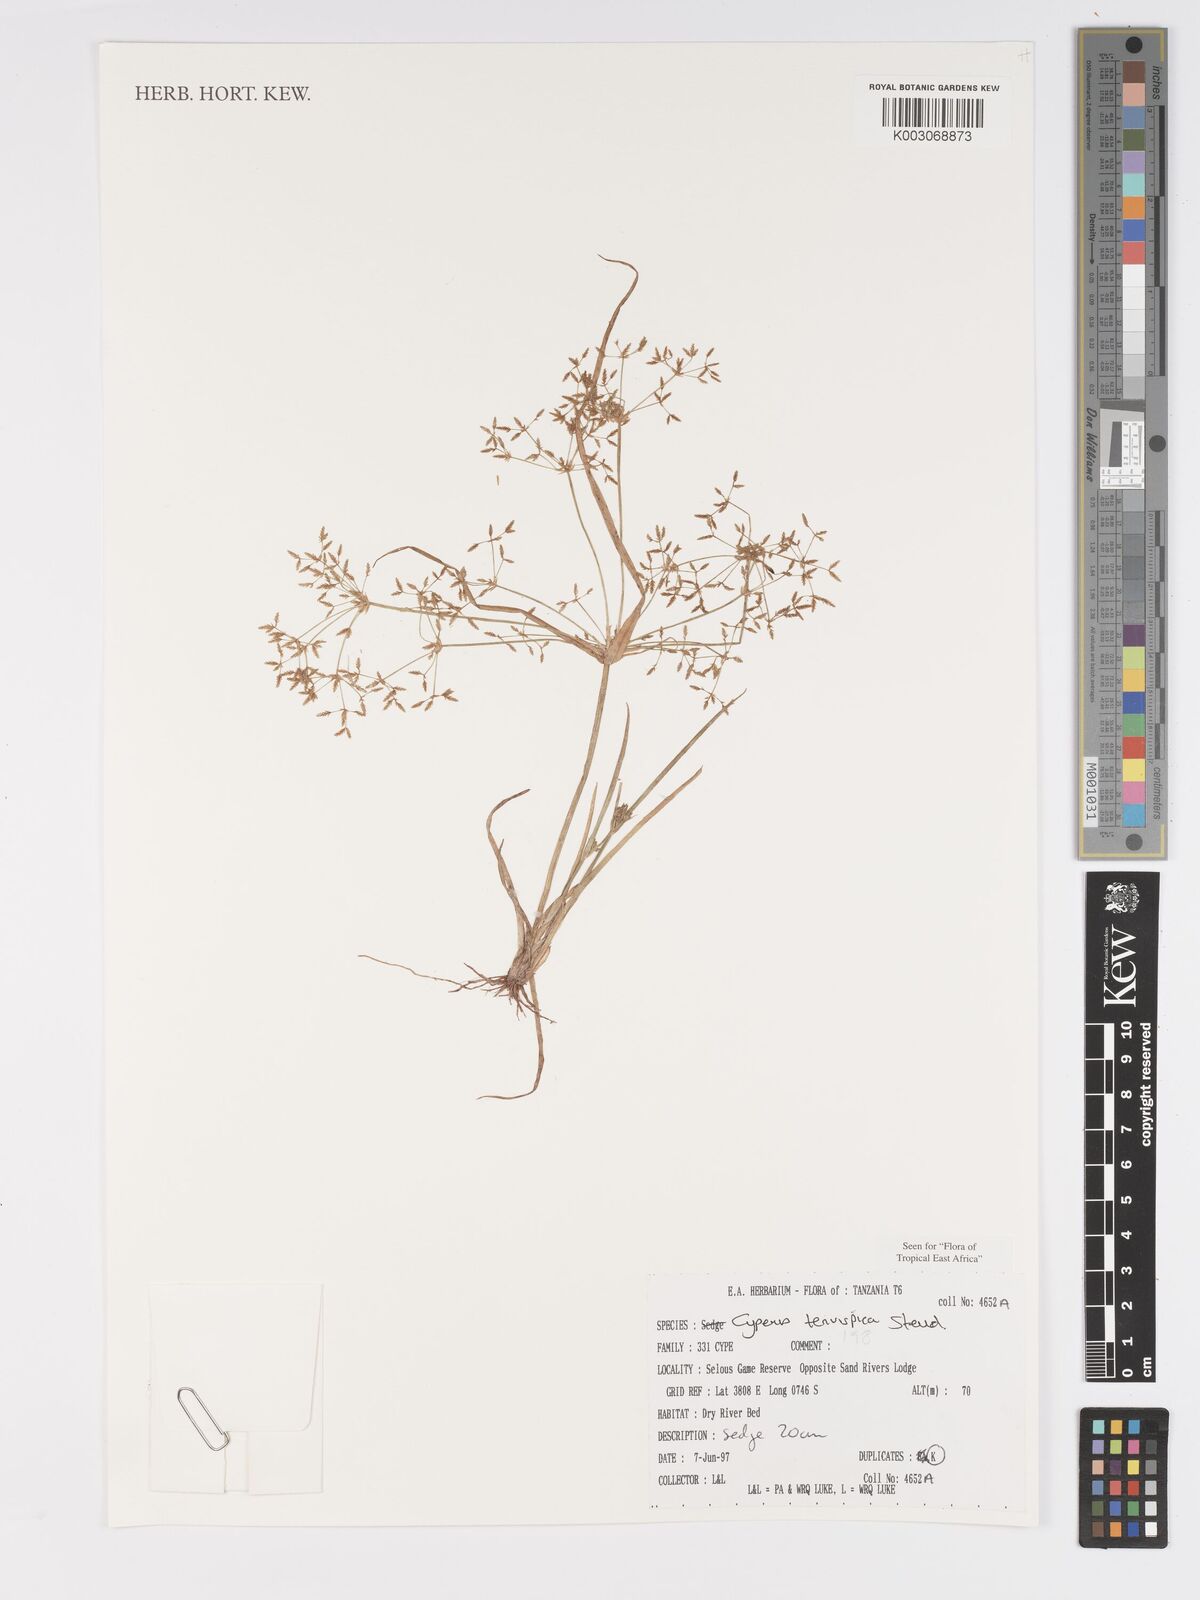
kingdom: Plantae
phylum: Tracheophyta
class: Liliopsida
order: Poales
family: Cyperaceae
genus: Cyperus
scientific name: Cyperus tenuispica
